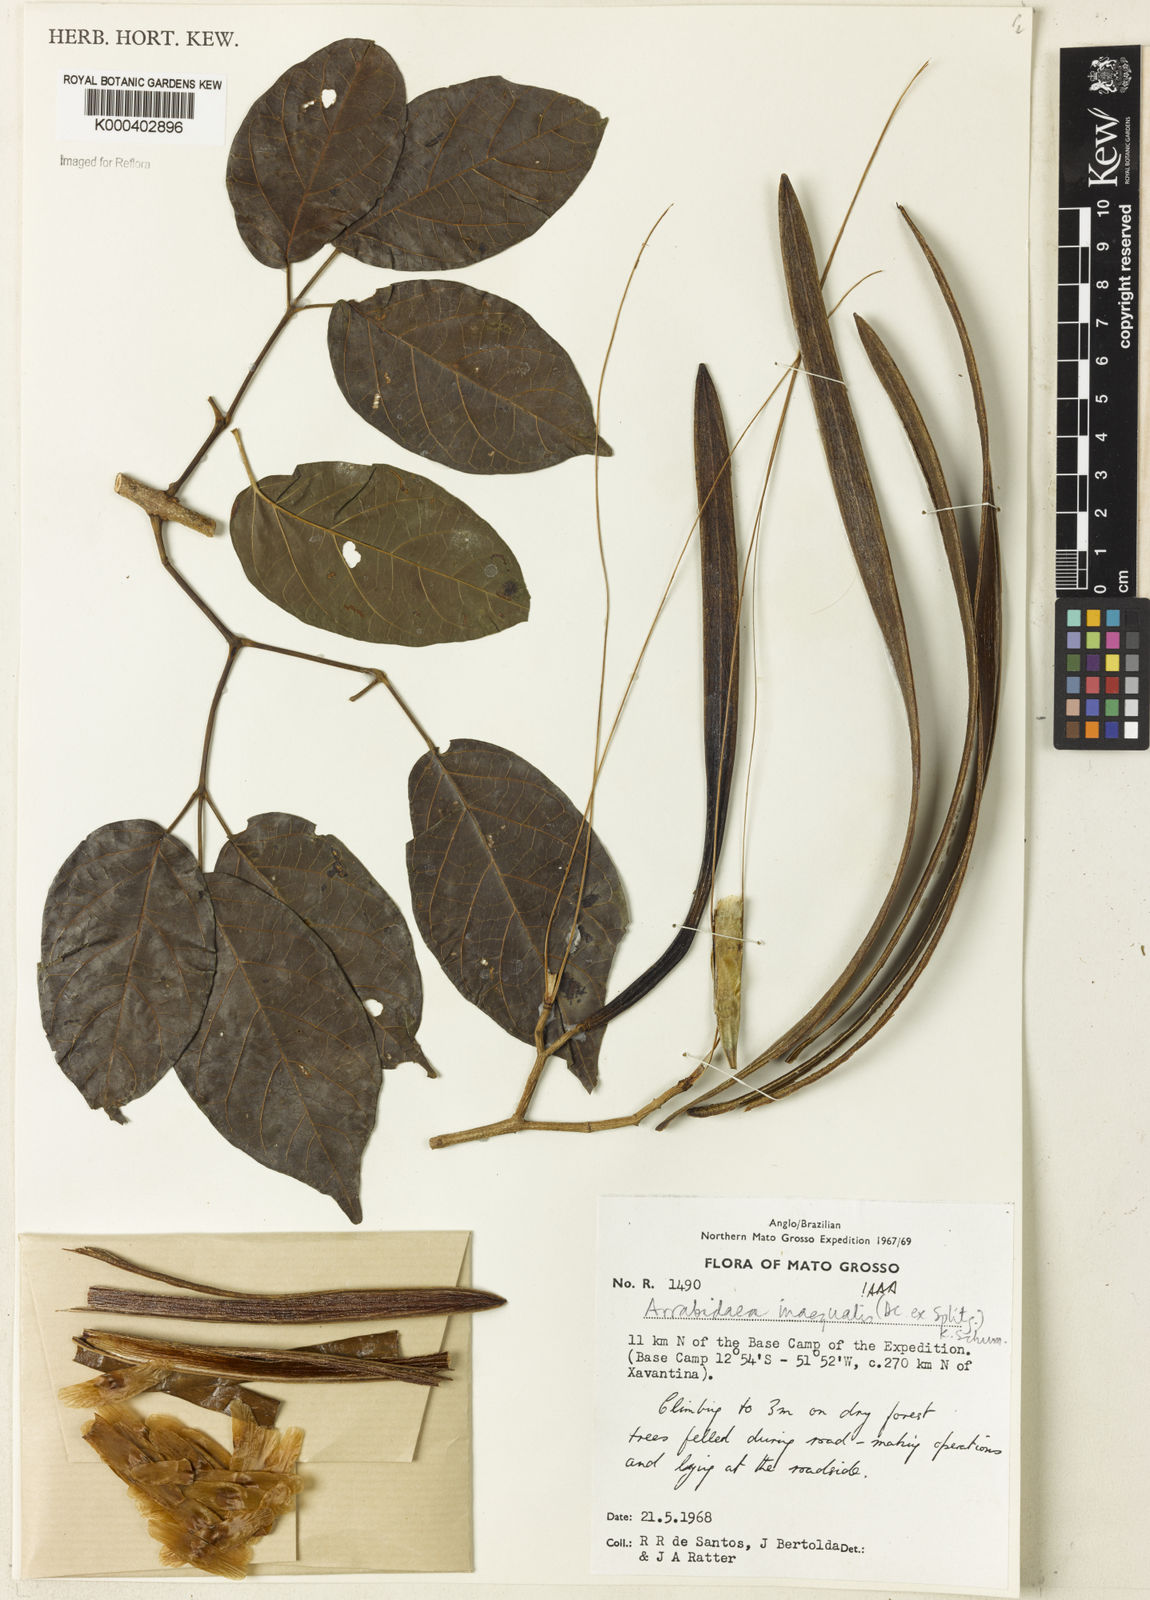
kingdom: Plantae
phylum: Tracheophyta
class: Magnoliopsida
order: Lamiales
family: Bignoniaceae
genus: Cuspidaria
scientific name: Cuspidaria inaequalis
